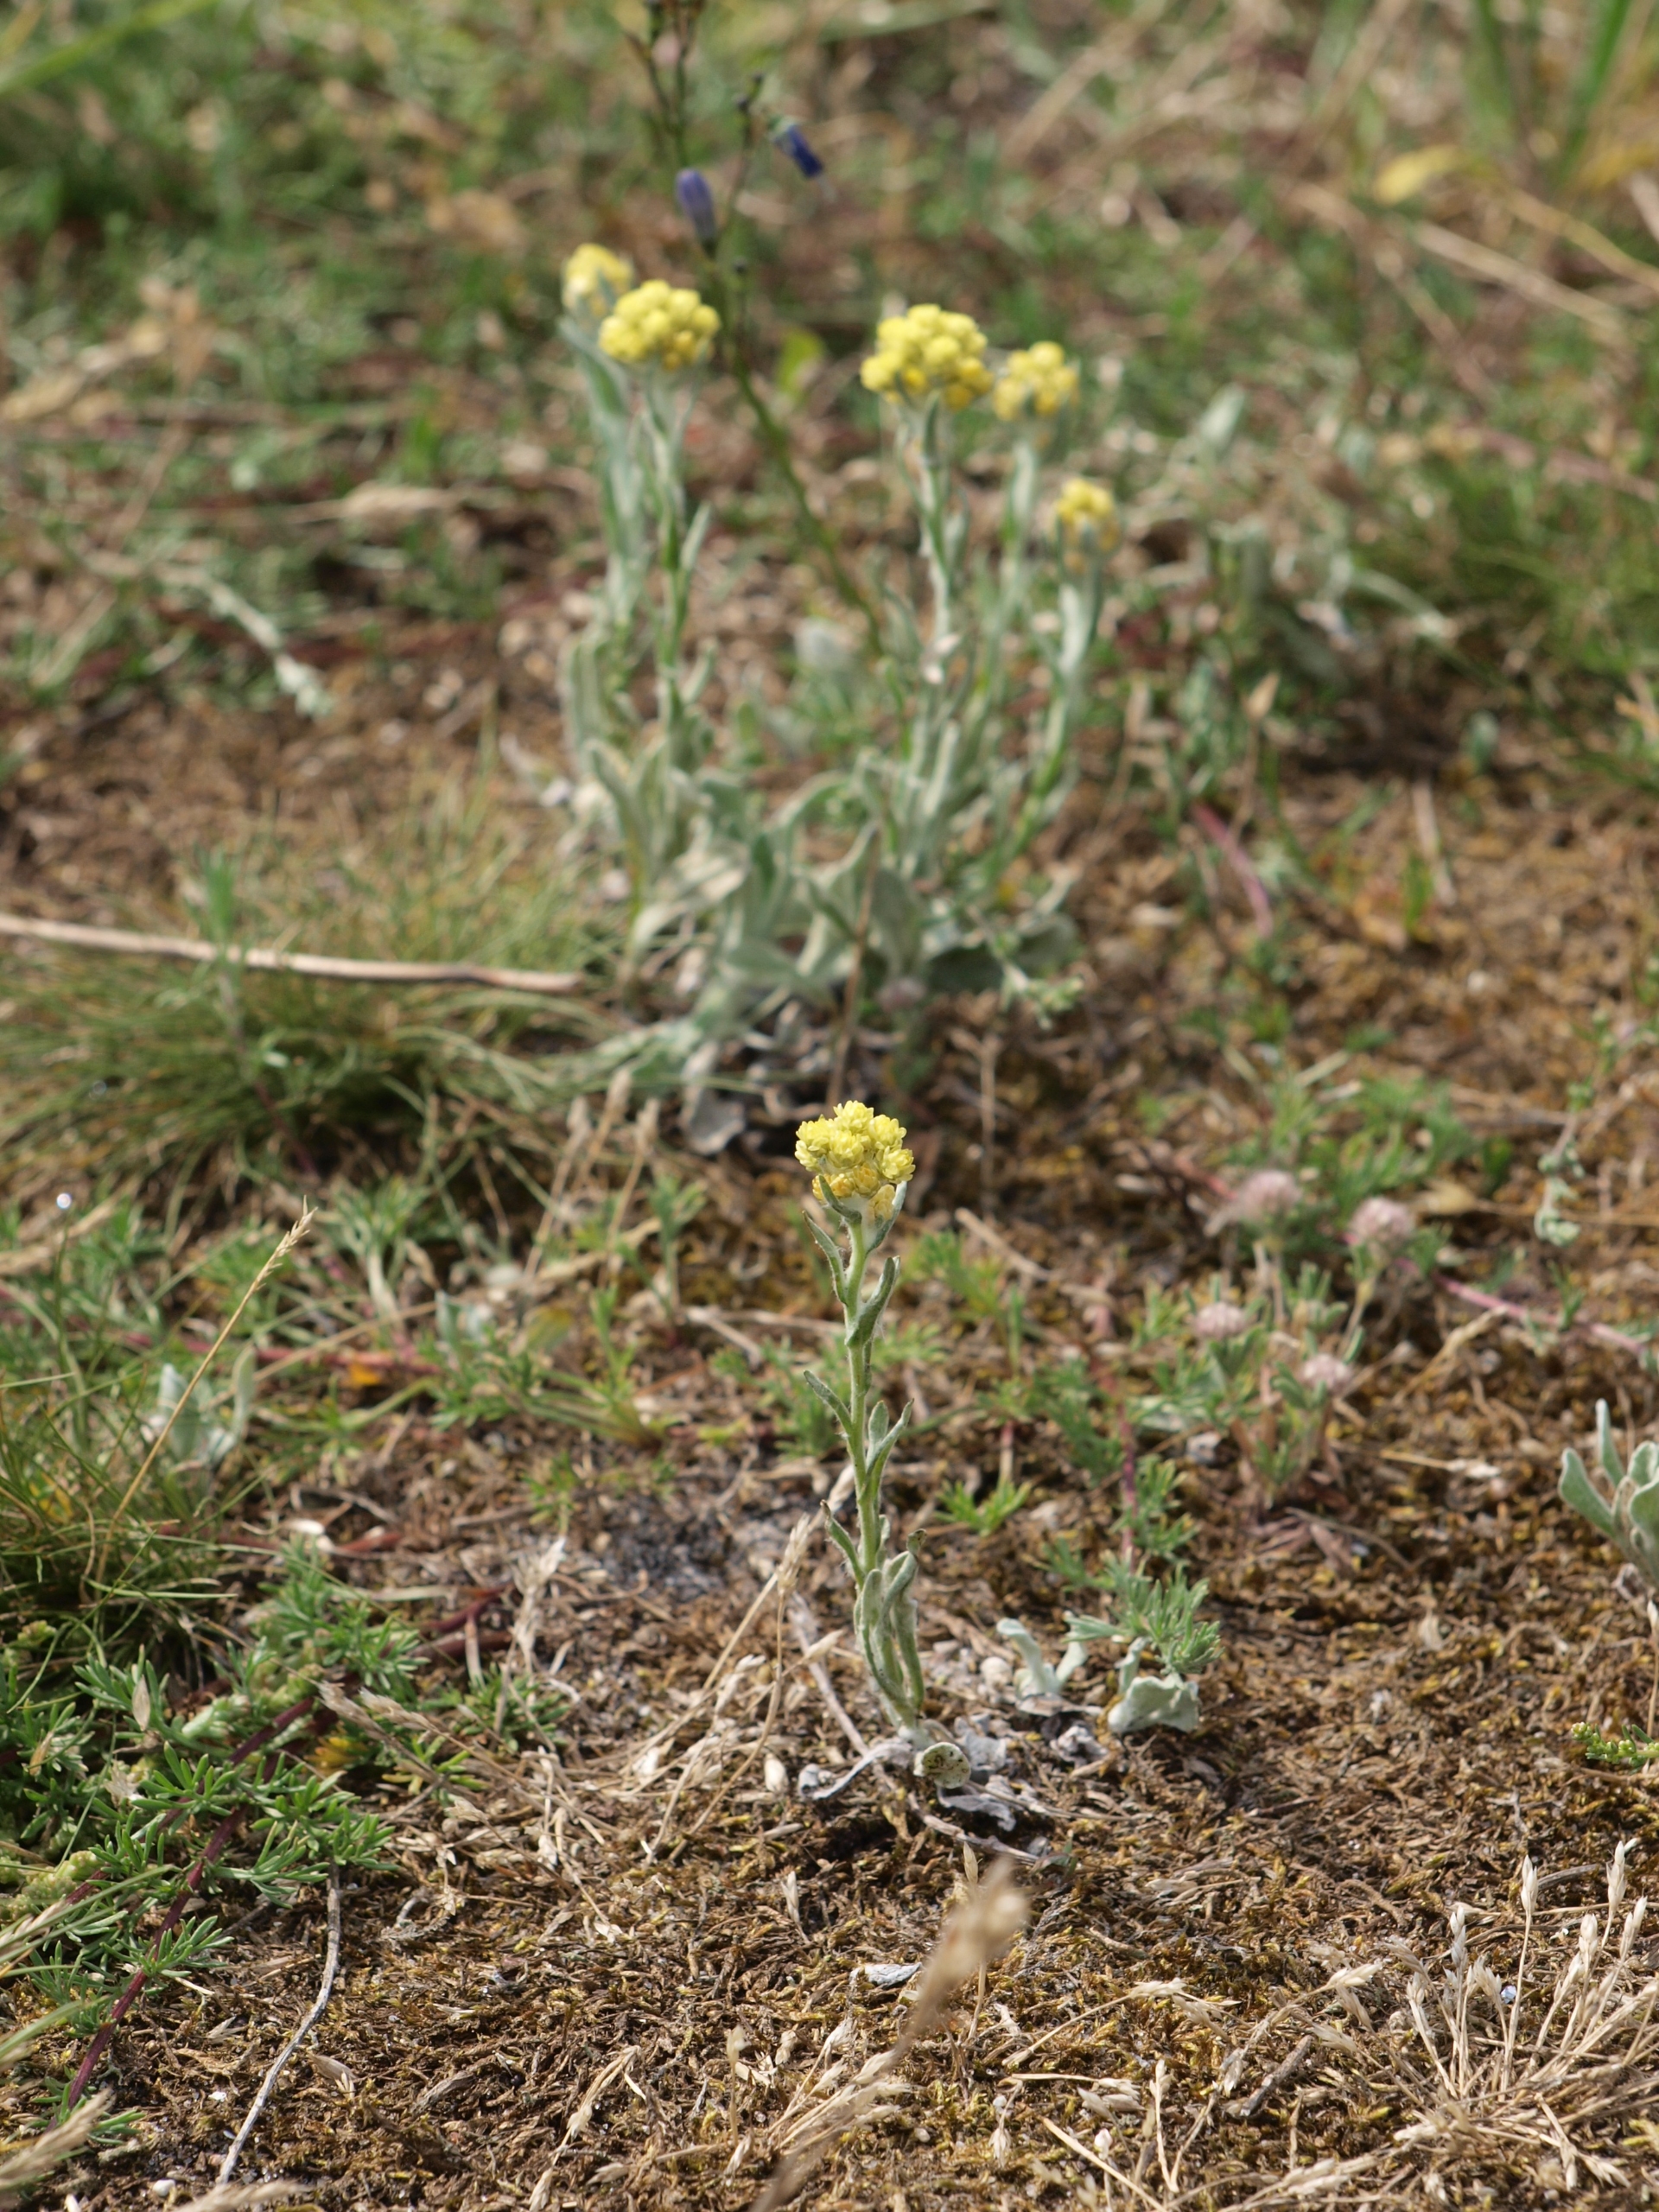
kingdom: Plantae
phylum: Tracheophyta
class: Magnoliopsida
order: Asterales
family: Asteraceae
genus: Helichrysum
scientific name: Helichrysum arenarium
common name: Gul evighedsblomst
